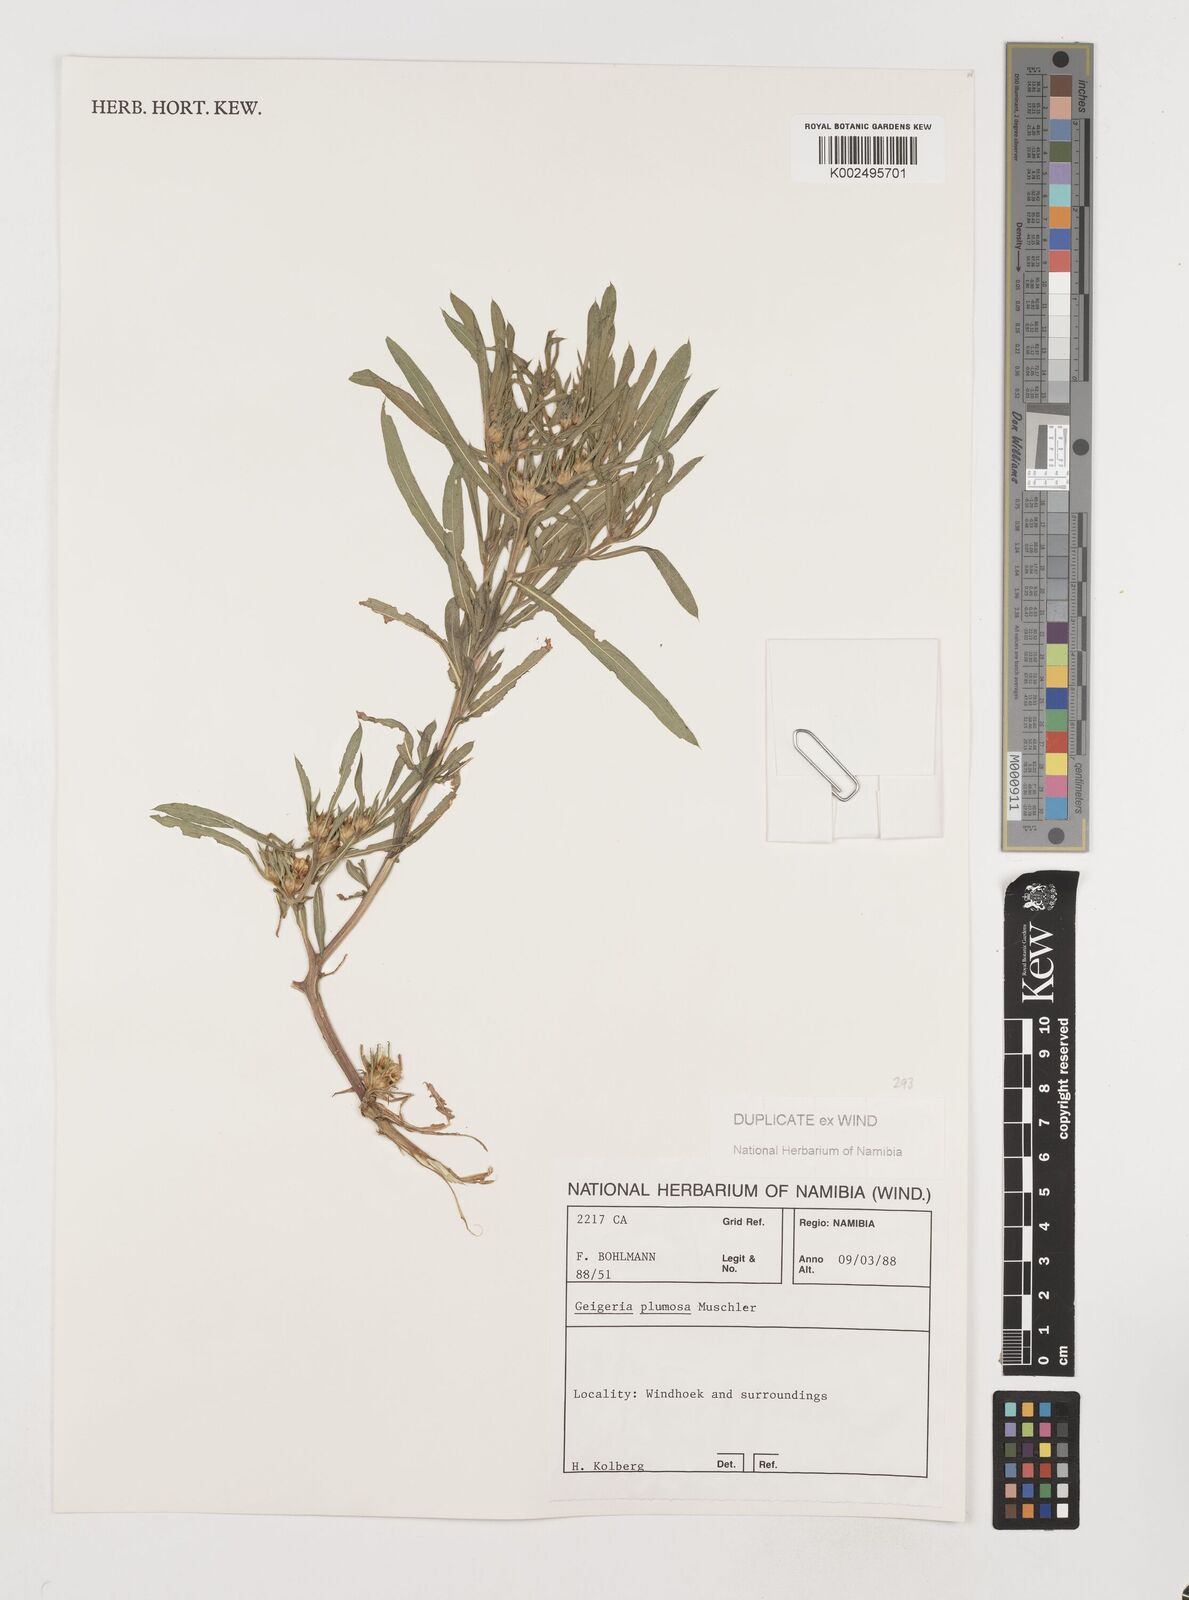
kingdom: Plantae
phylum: Tracheophyta
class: Magnoliopsida
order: Asterales
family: Asteraceae
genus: Geigeria
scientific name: Geigeria plumosa
